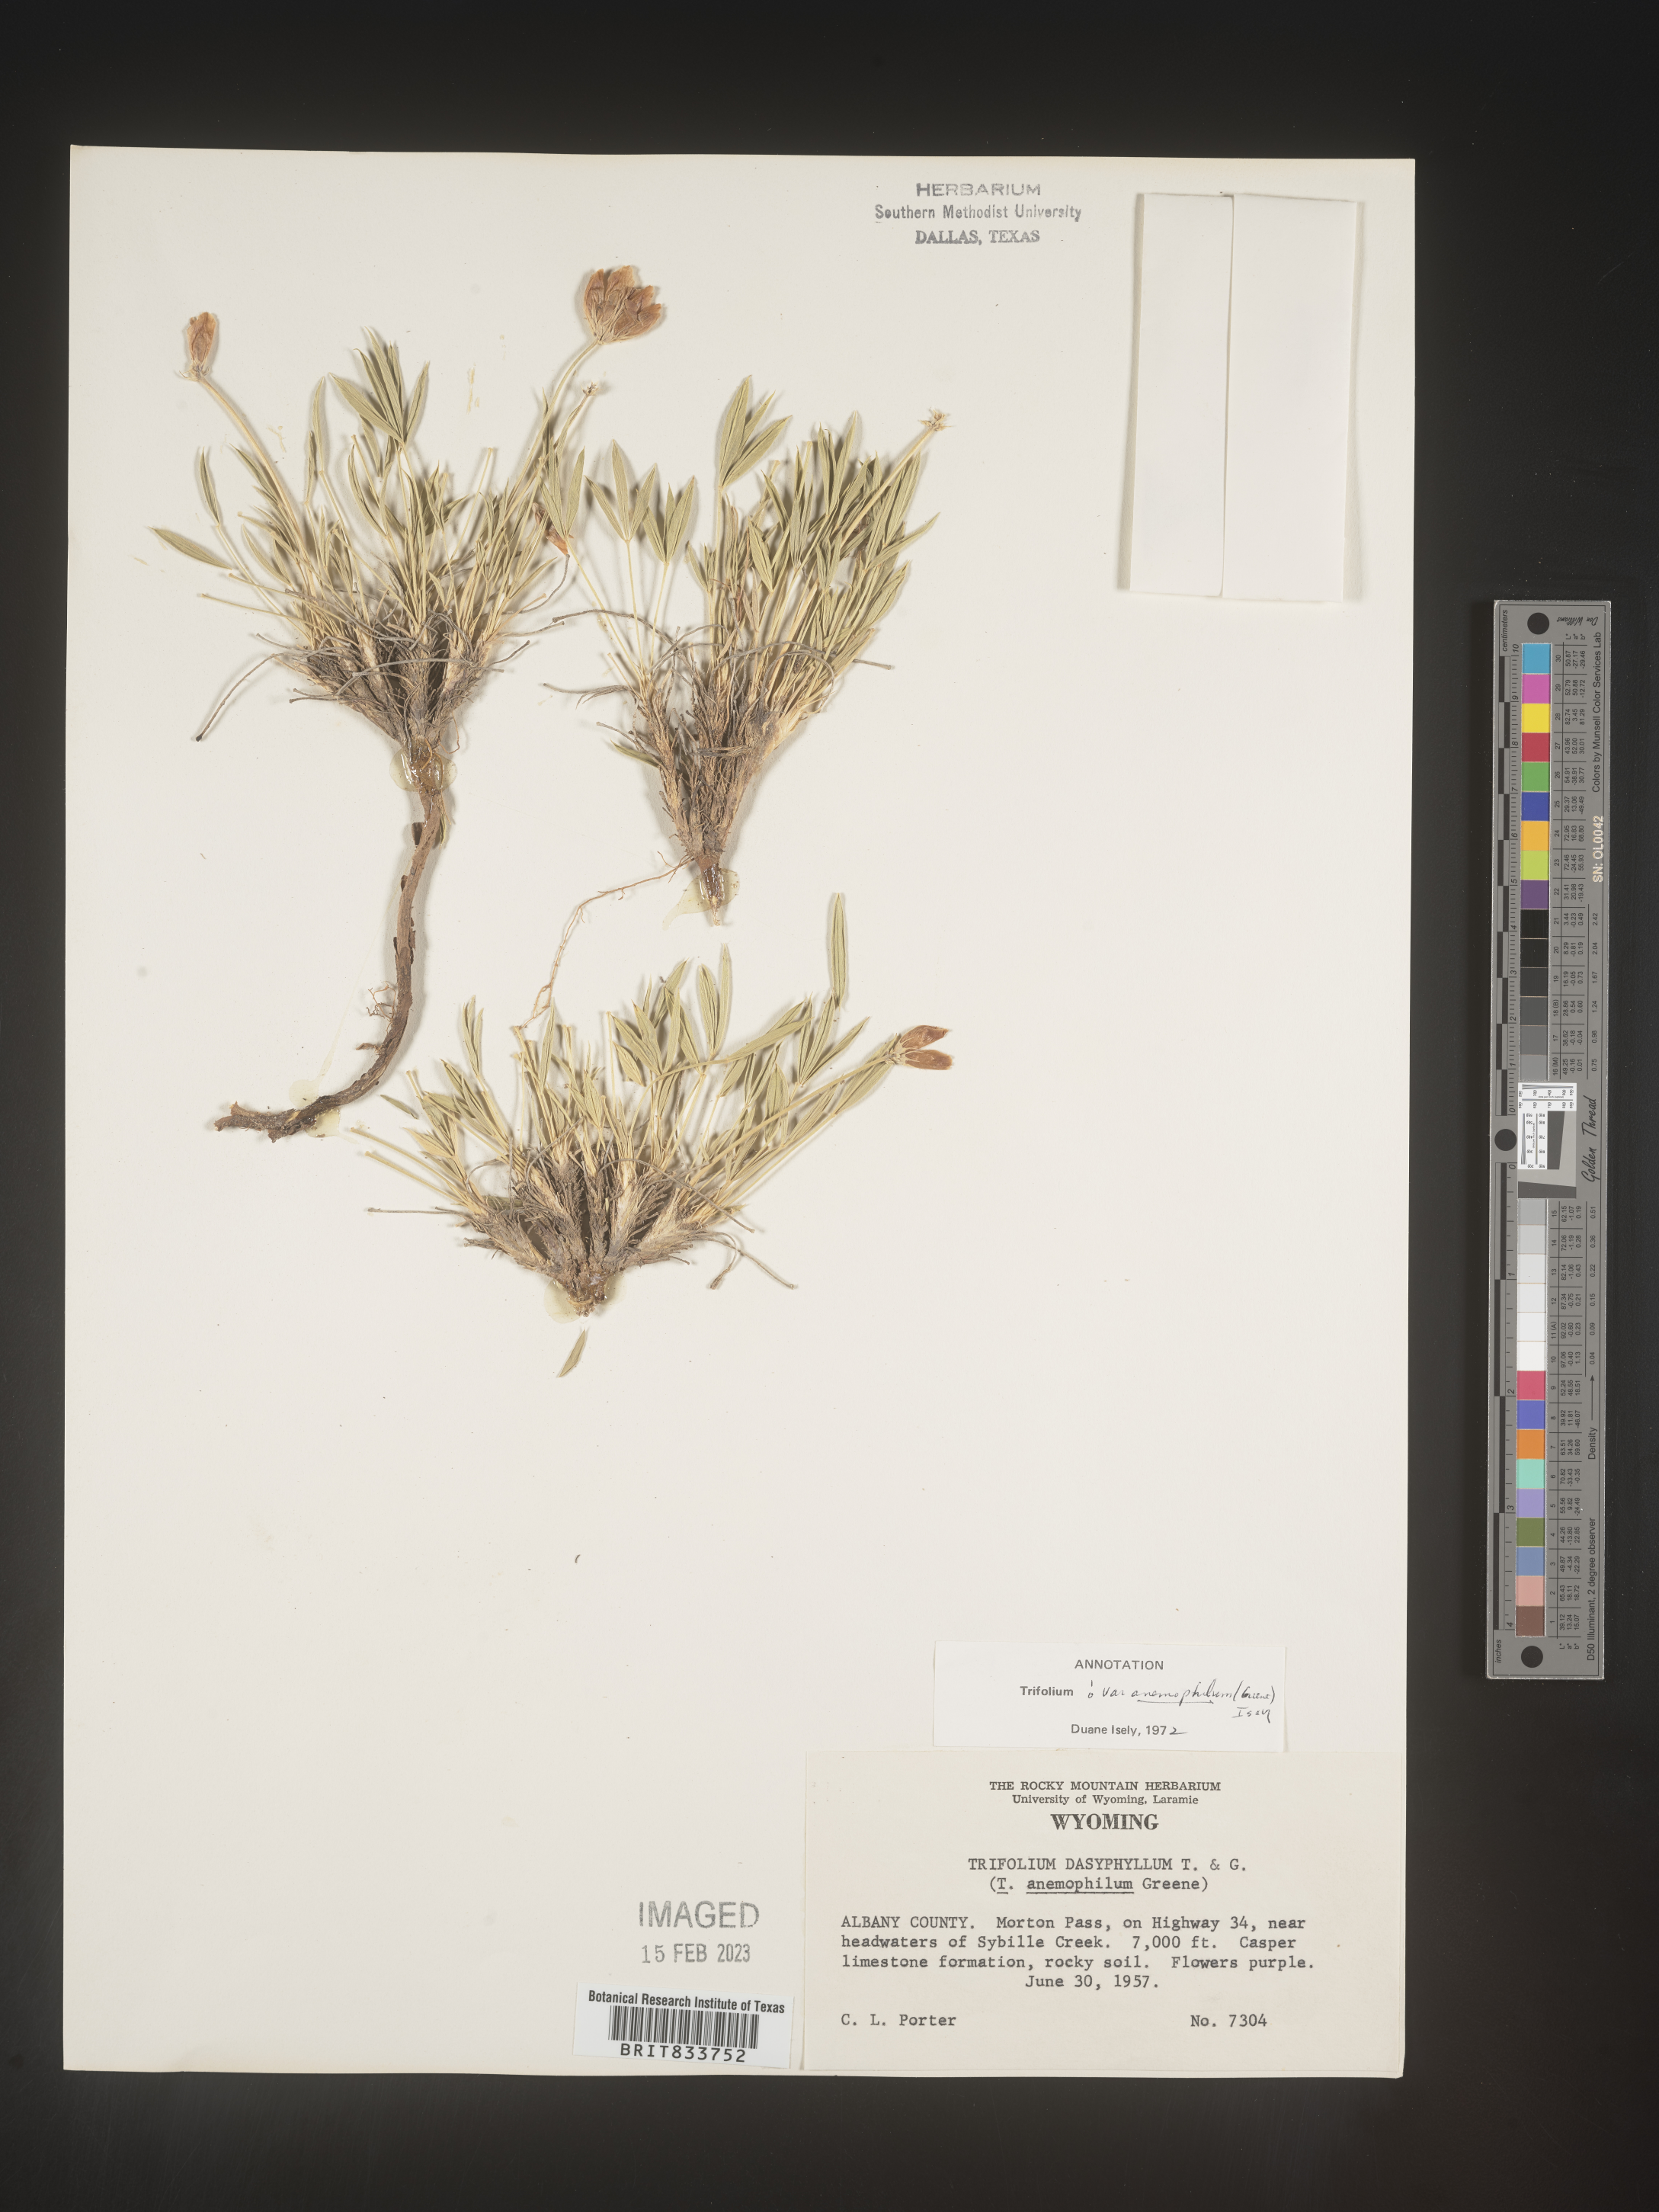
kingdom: Plantae
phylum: Tracheophyta
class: Magnoliopsida
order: Fabales
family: Fabaceae
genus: Trifolium
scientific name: Trifolium
